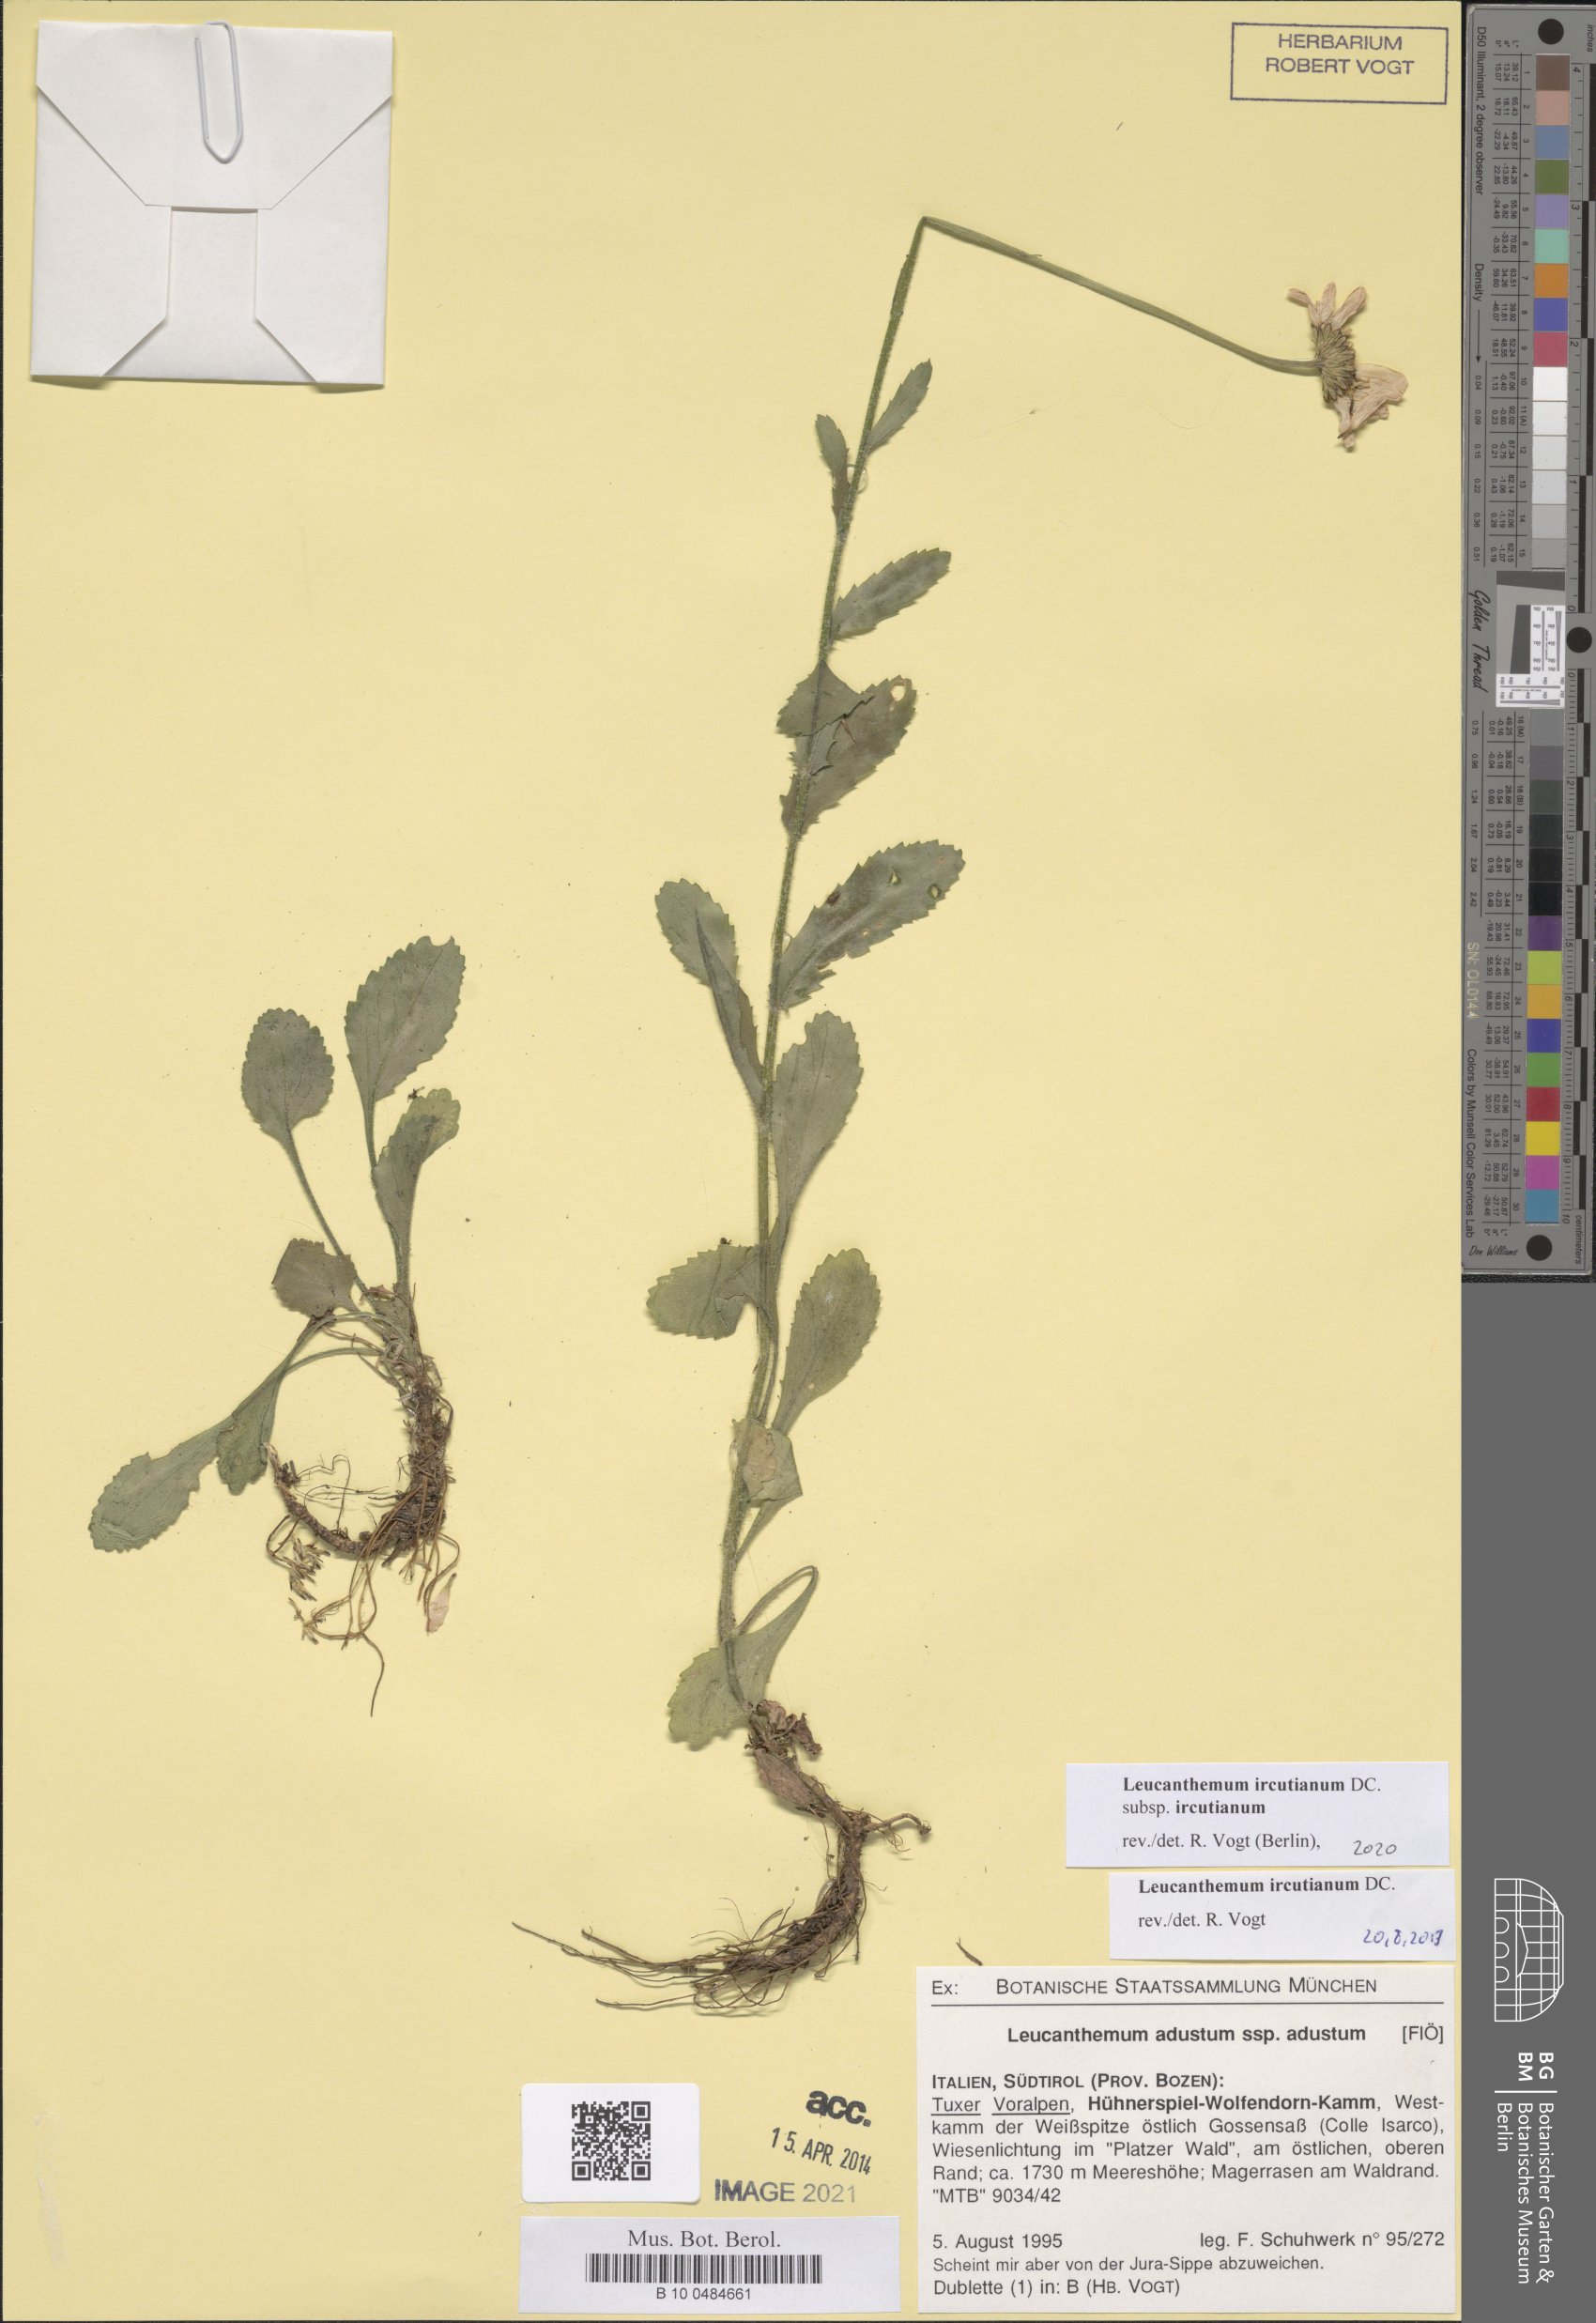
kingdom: Plantae
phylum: Tracheophyta
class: Magnoliopsida
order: Asterales
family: Asteraceae
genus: Leucanthemum
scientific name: Leucanthemum ircutianum
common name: Daisy
